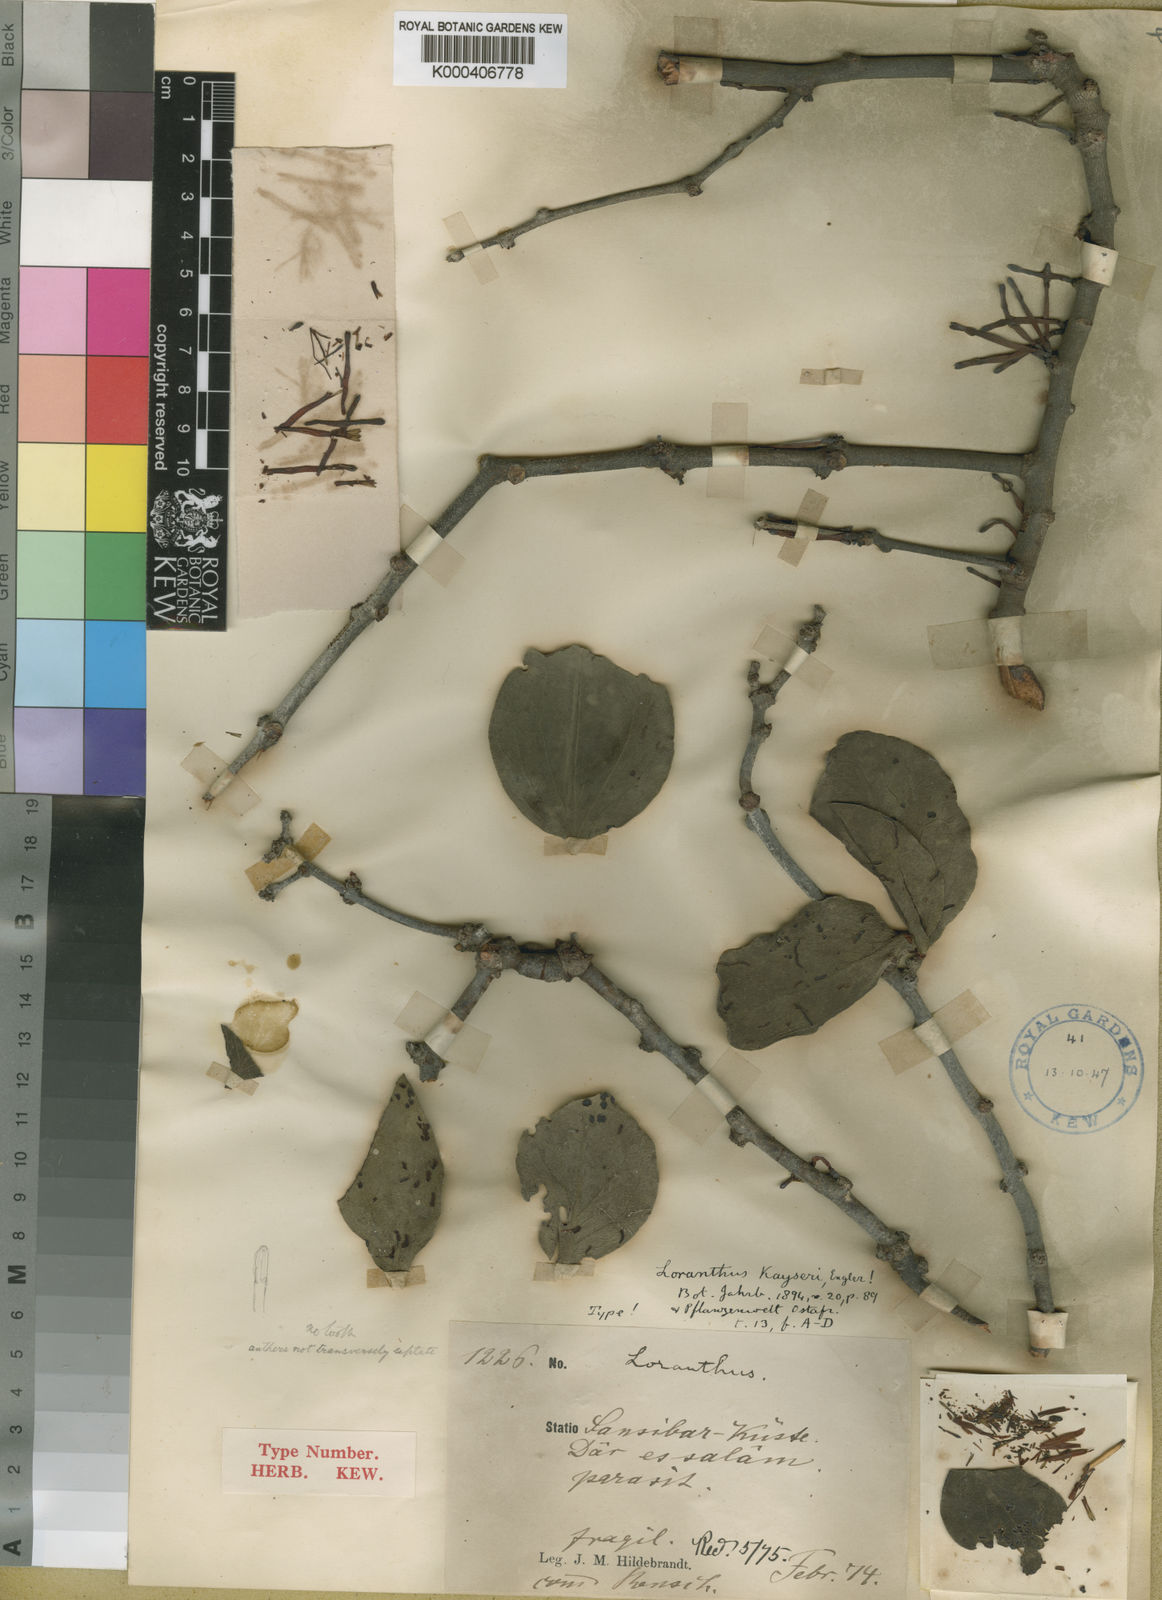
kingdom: Plantae
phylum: Tracheophyta
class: Magnoliopsida
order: Santalales
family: Loranthaceae
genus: Agelanthus
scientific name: Agelanthus kayseri
